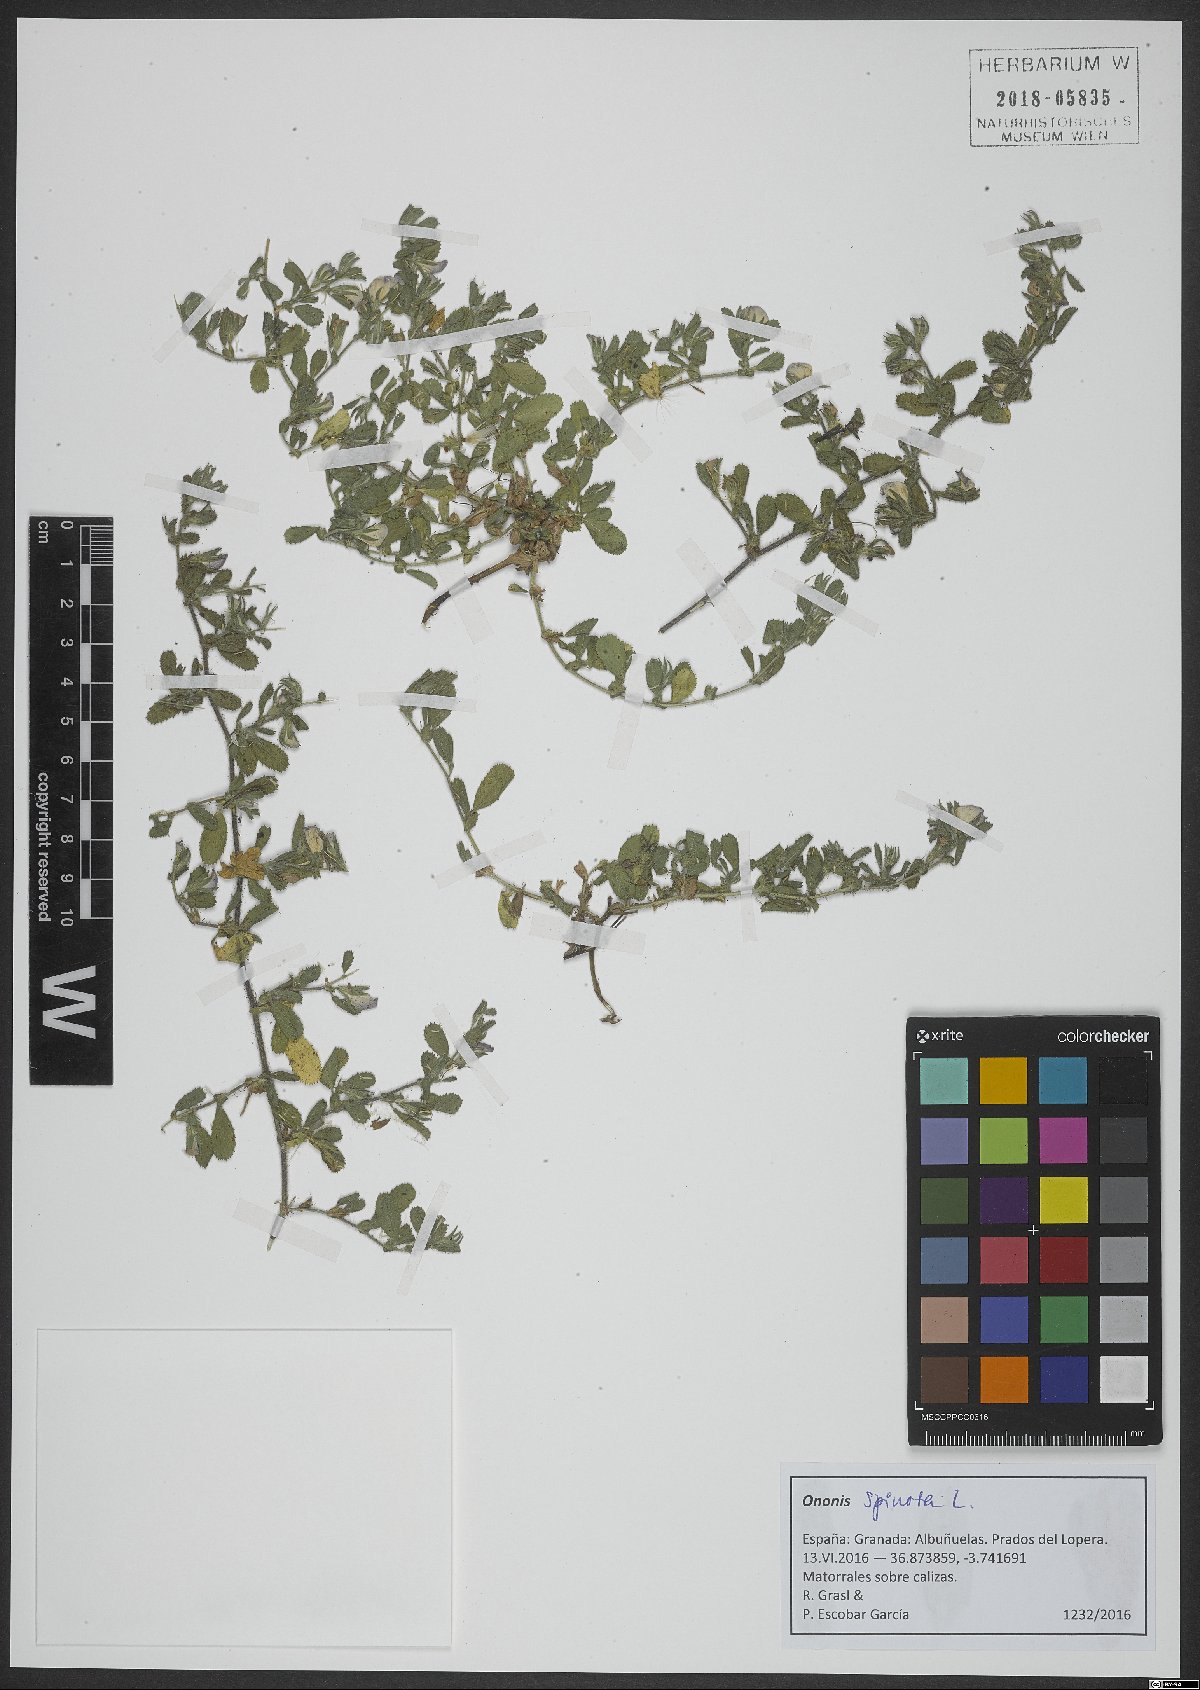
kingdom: Plantae
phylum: Tracheophyta
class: Magnoliopsida
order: Fabales
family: Fabaceae
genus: Ononis
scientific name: Ononis spinosa
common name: Spiny restharrow
